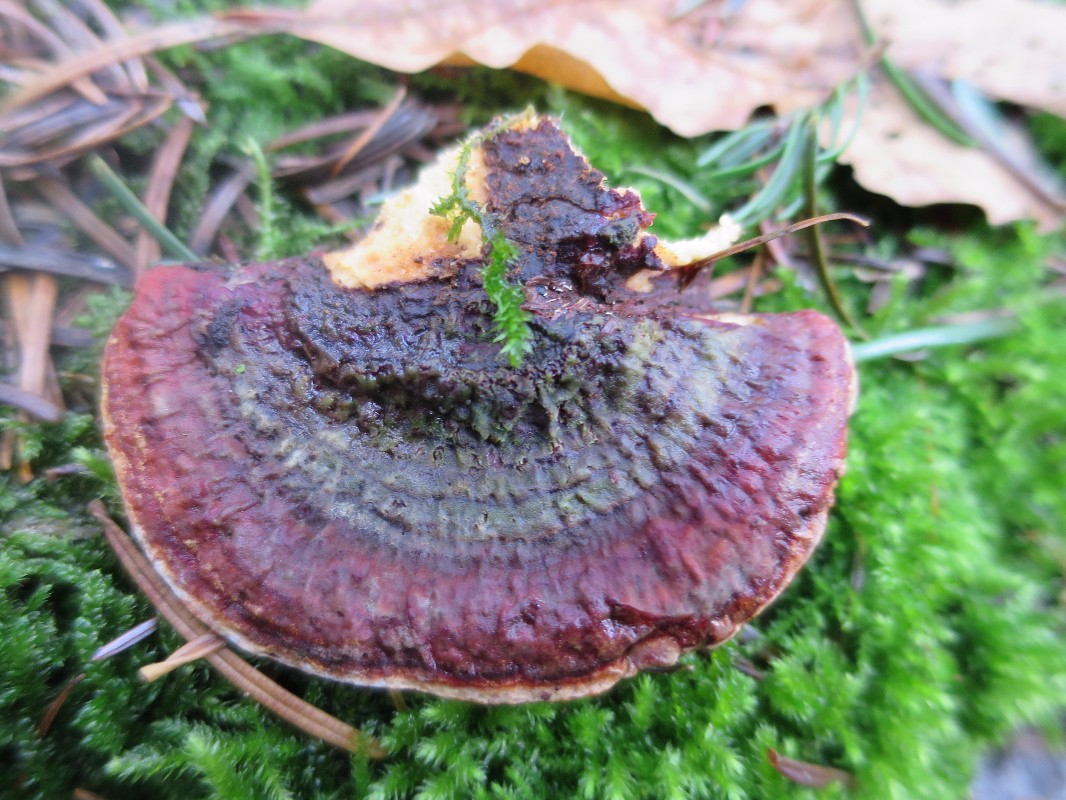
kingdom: Fungi
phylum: Basidiomycota
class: Agaricomycetes
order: Russulales
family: Bondarzewiaceae
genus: Heterobasidion
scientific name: Heterobasidion
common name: rodfordærver
